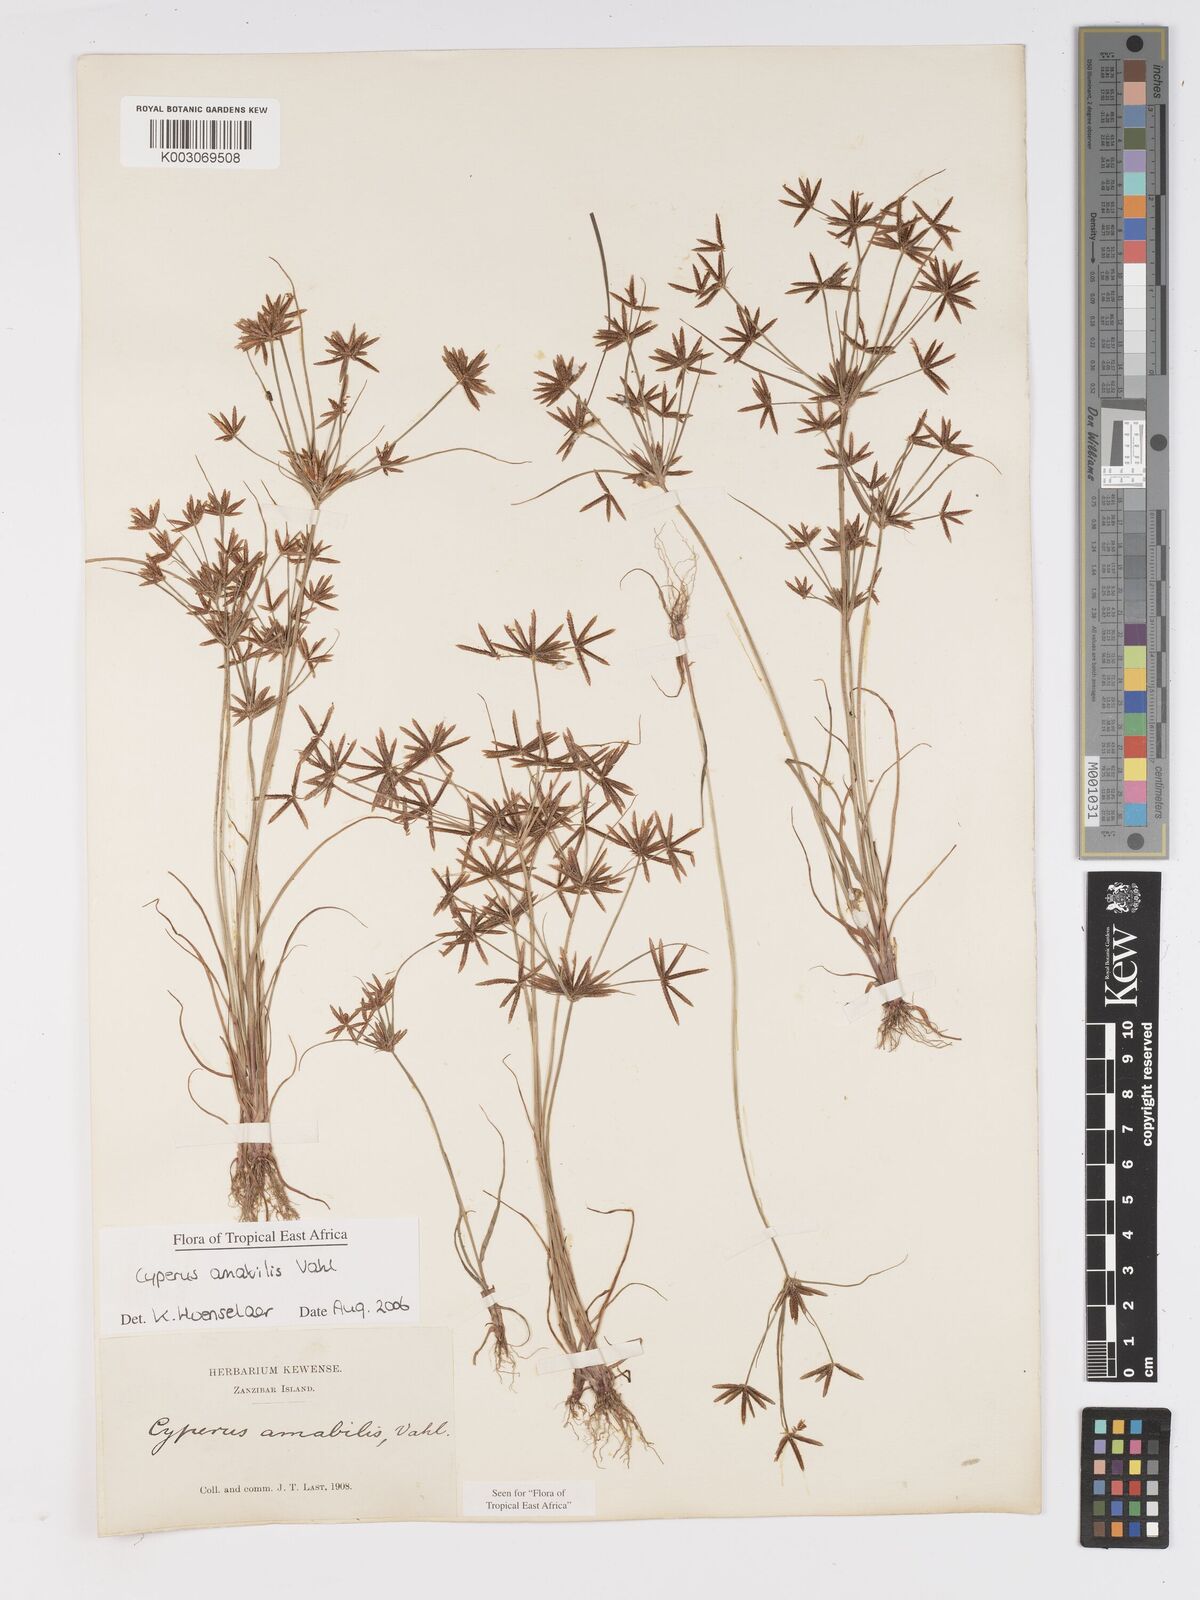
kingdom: Plantae
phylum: Tracheophyta
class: Liliopsida
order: Poales
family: Cyperaceae
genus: Cyperus
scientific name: Cyperus amabilis
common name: Foothill flat sedge
